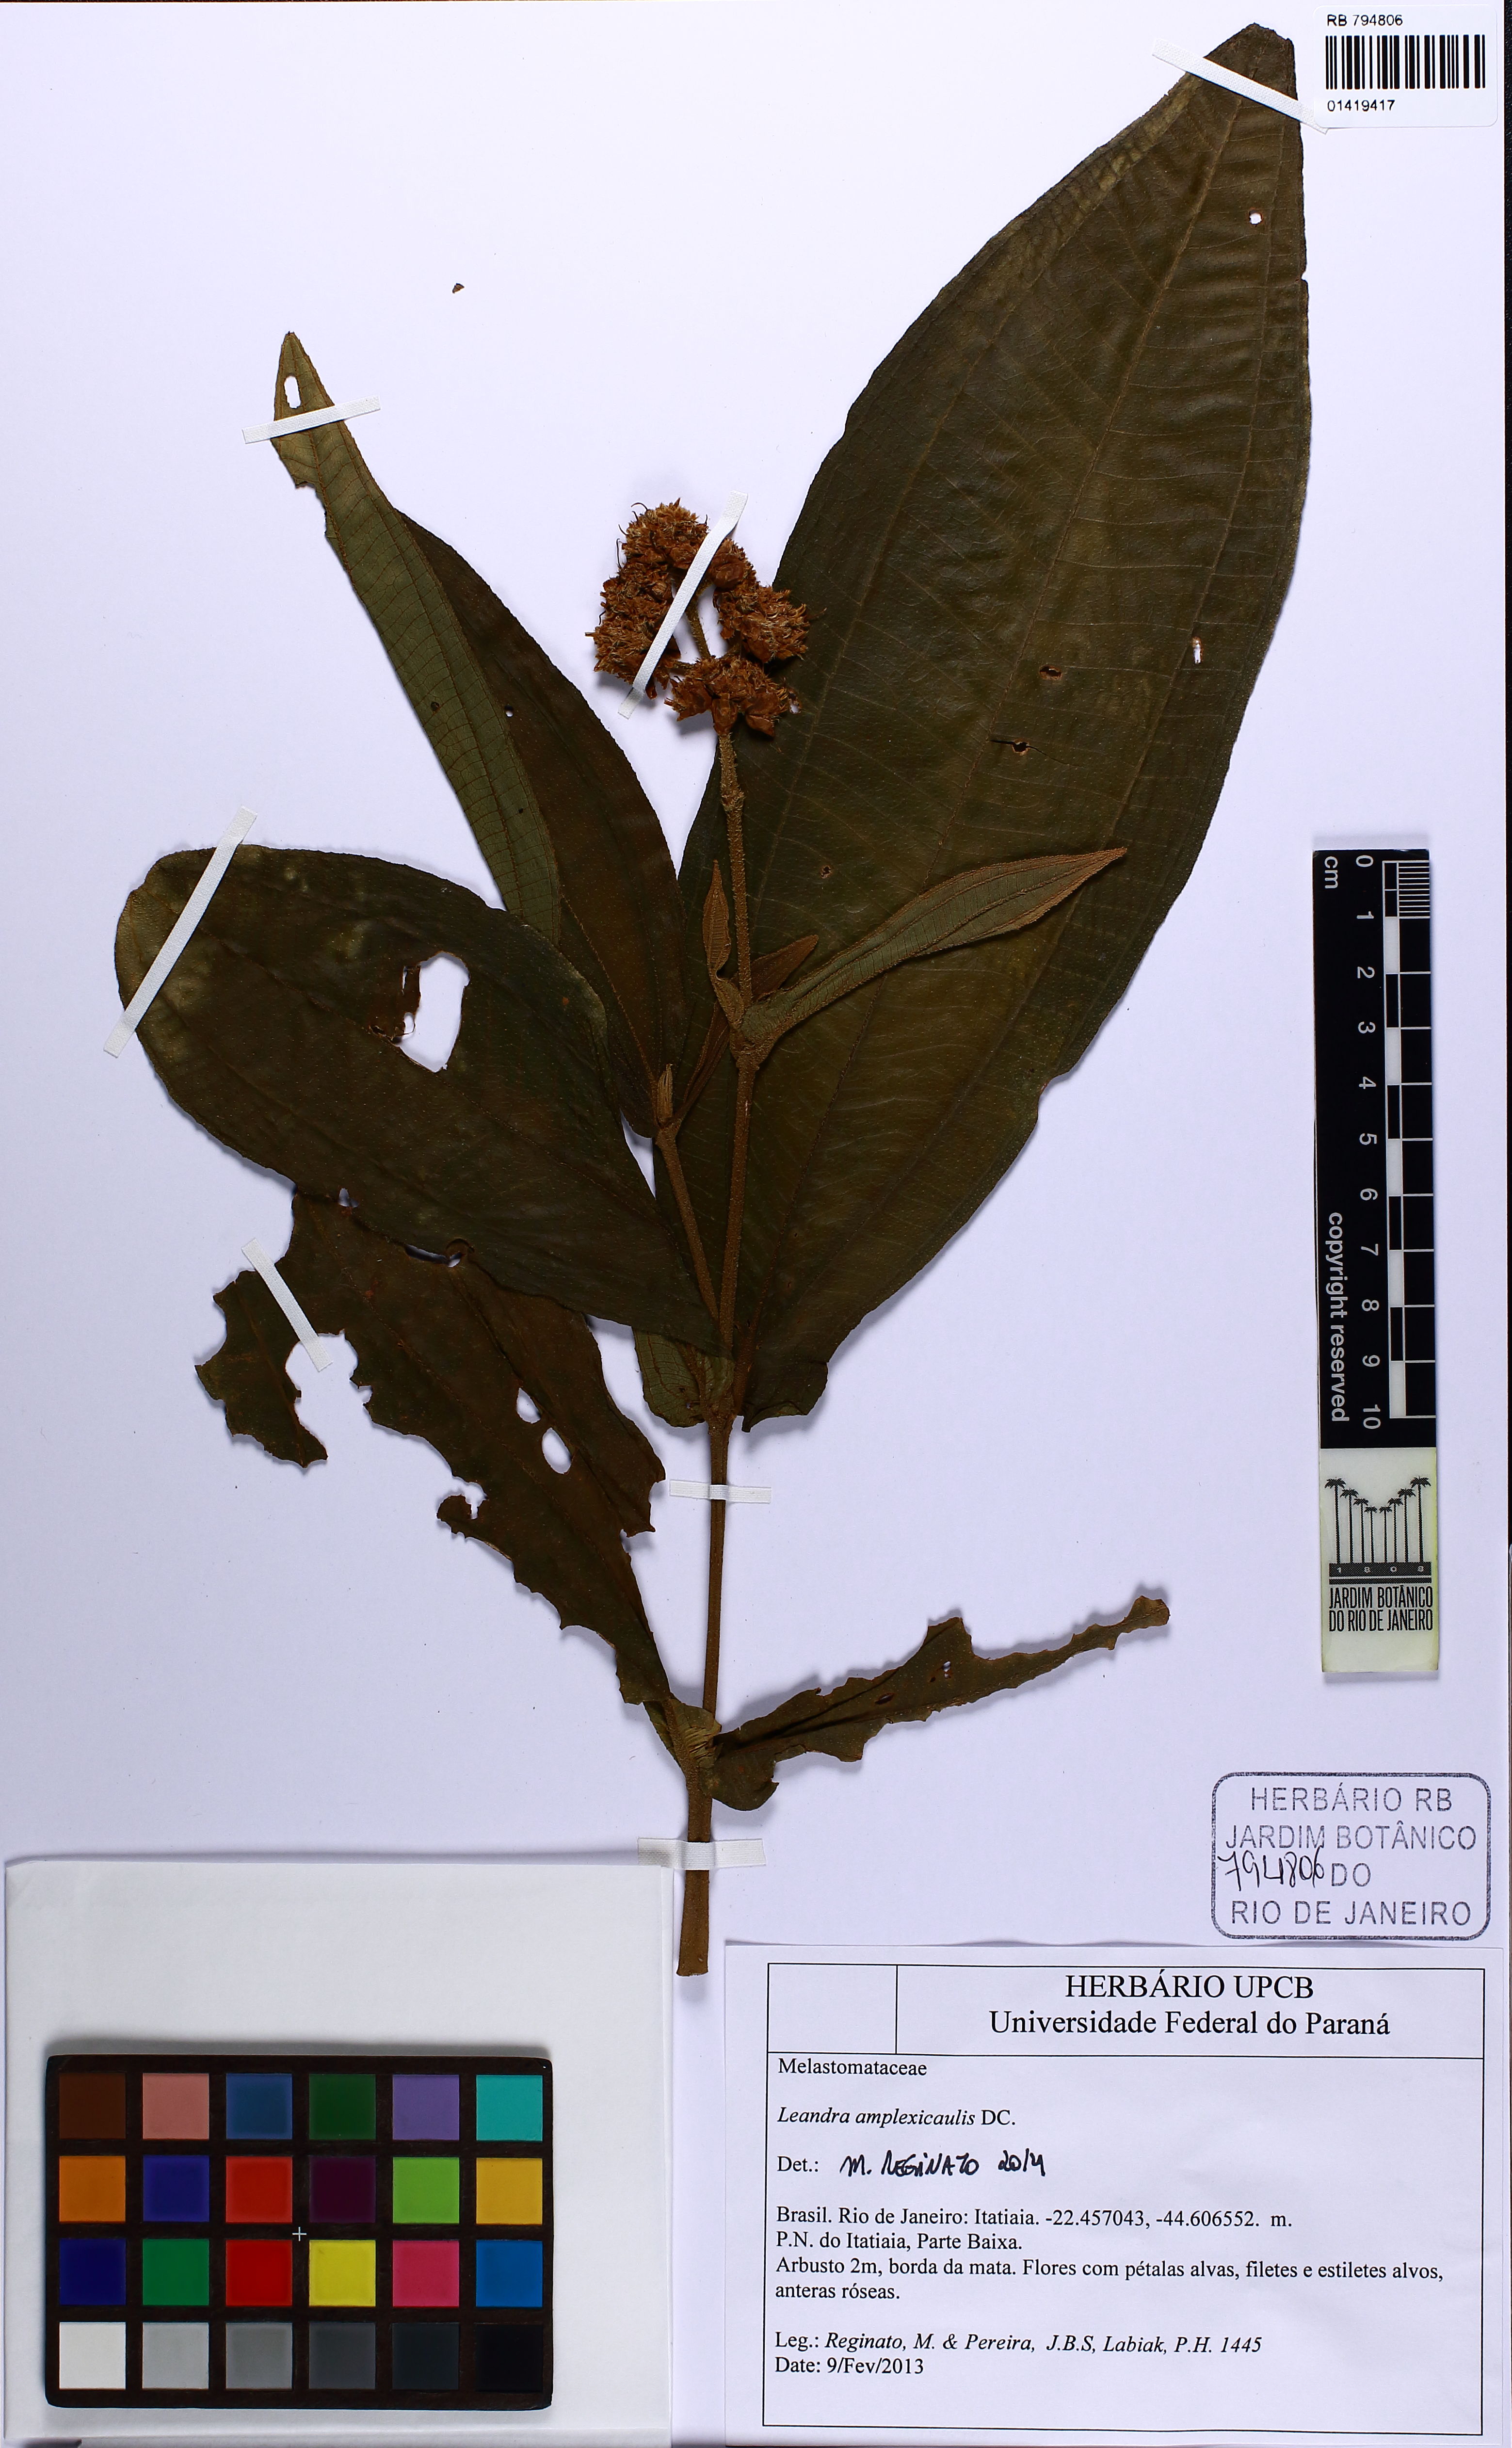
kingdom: Plantae
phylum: Tracheophyta
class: Magnoliopsida
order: Myrtales
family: Melastomataceae
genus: Miconia
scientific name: Miconia pectinata
